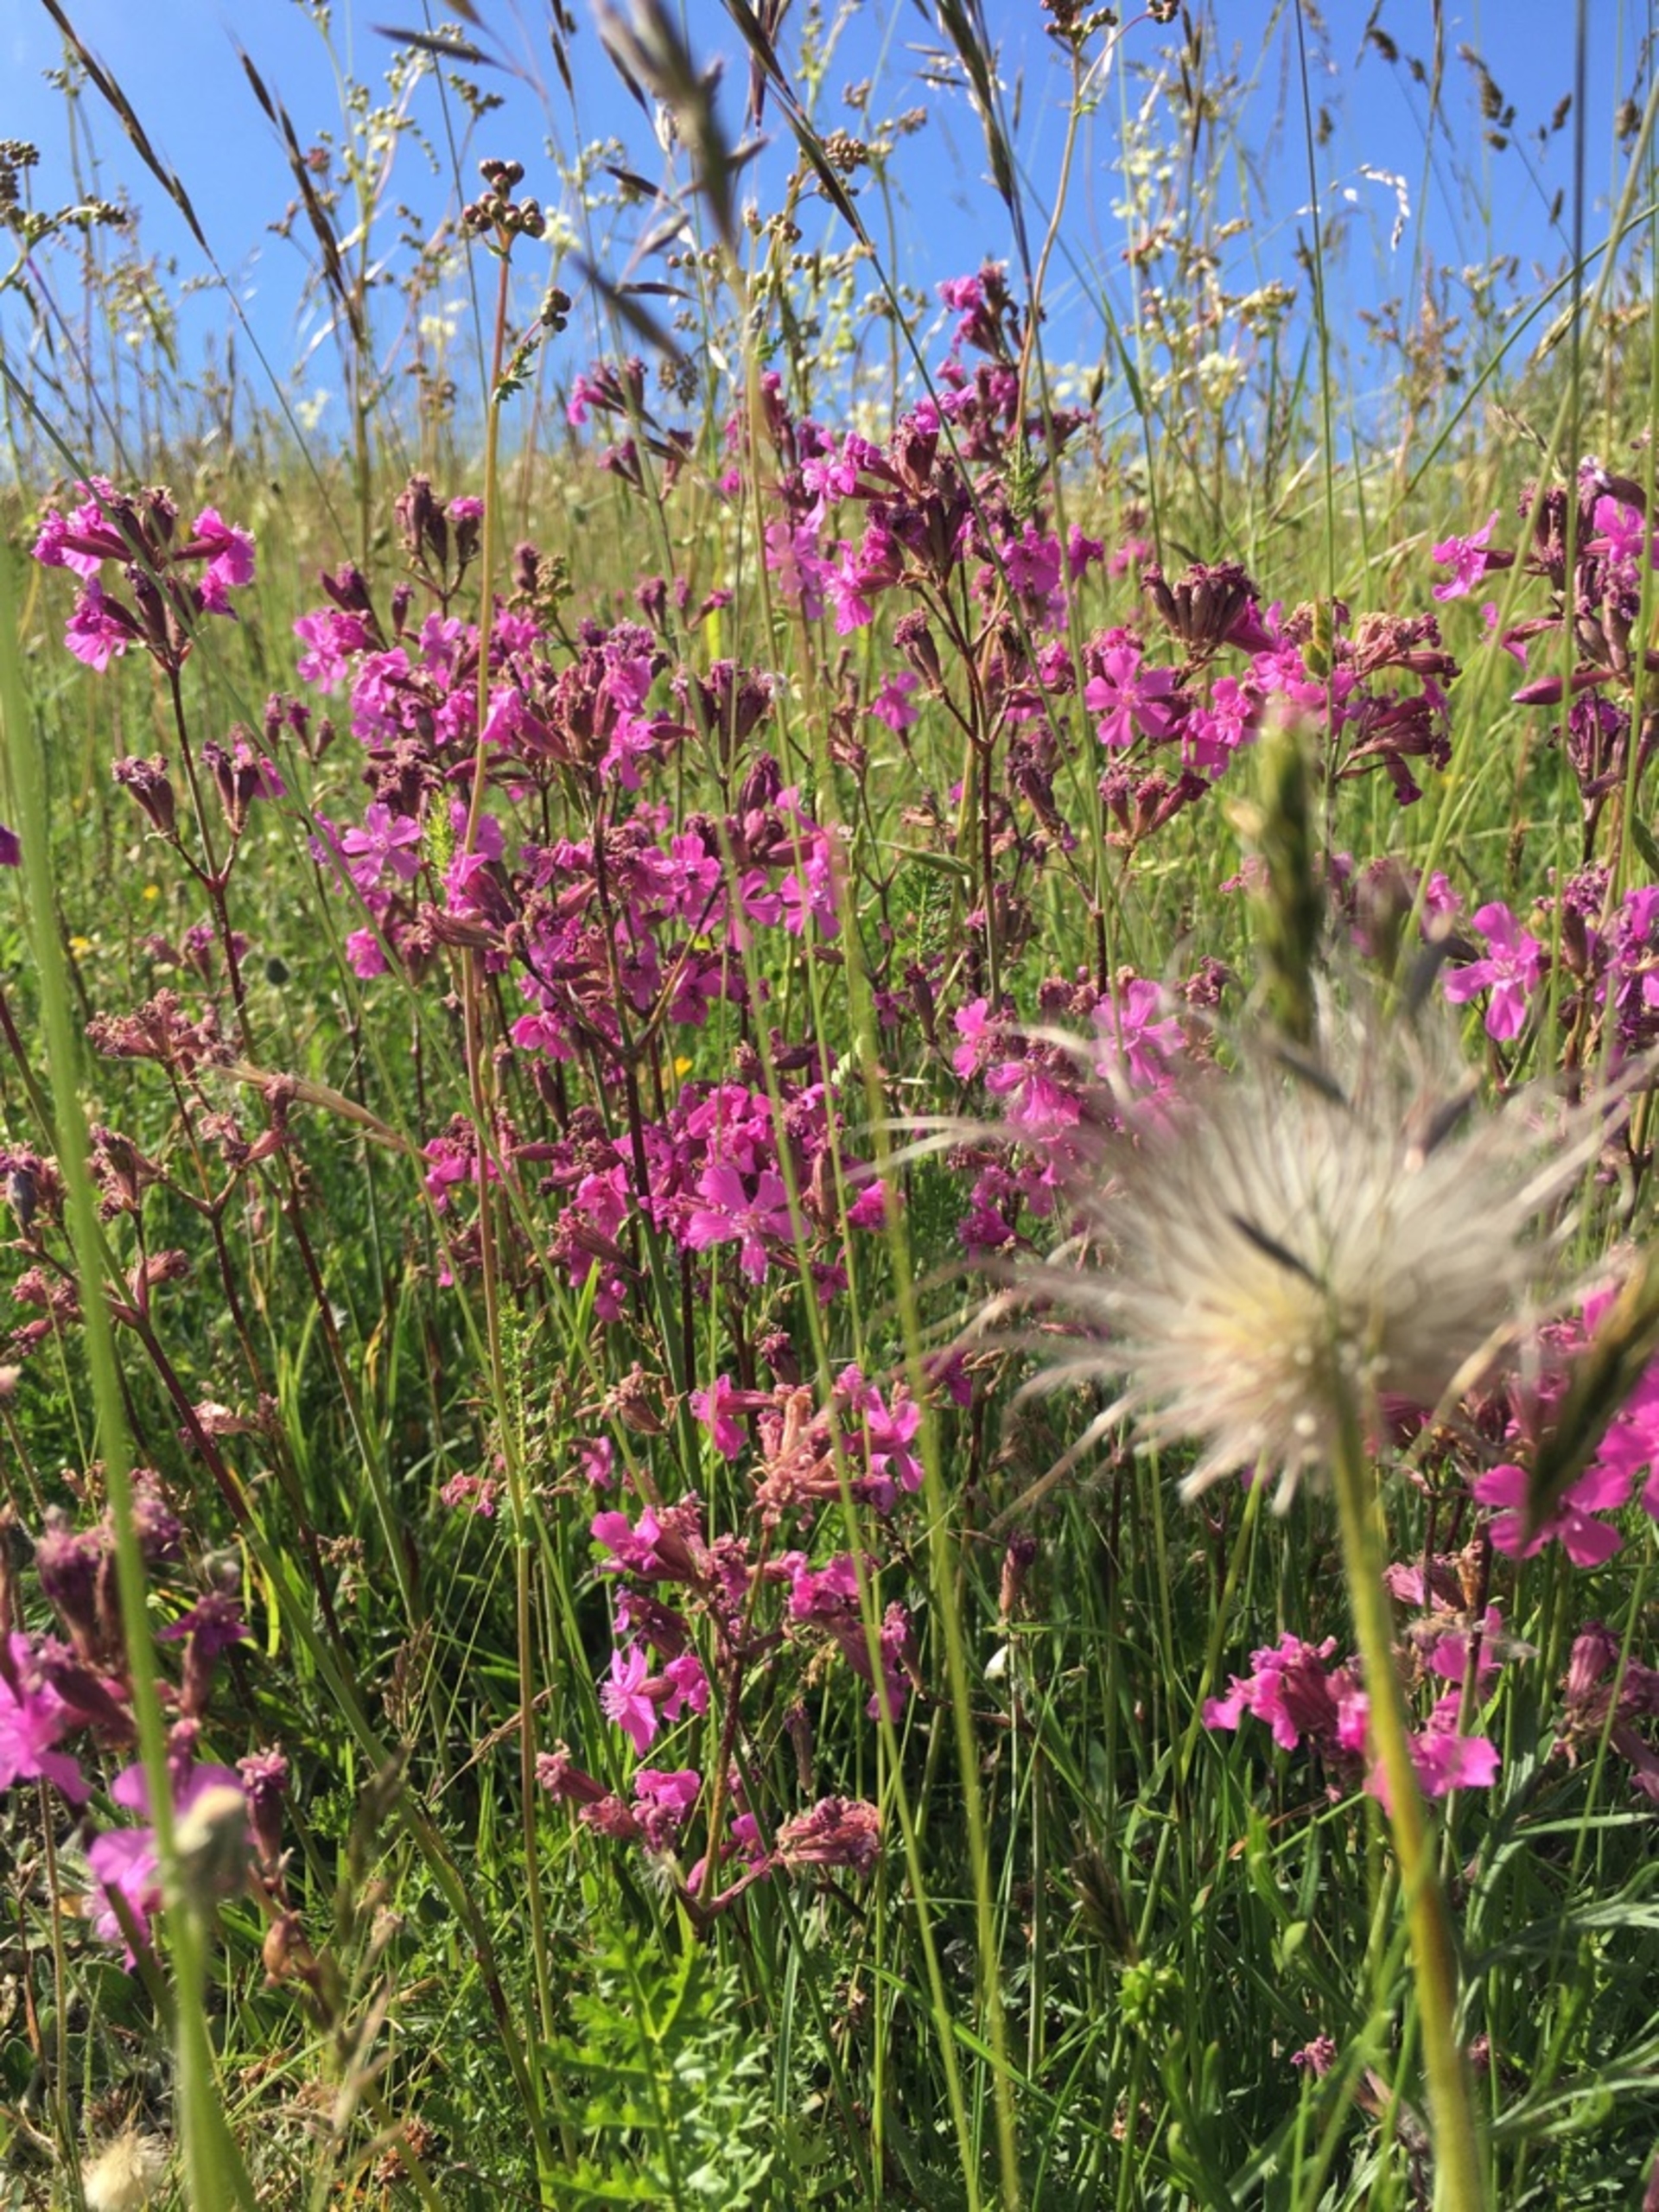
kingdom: Plantae
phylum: Tracheophyta
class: Magnoliopsida
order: Caryophyllales
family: Caryophyllaceae
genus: Viscaria
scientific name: Viscaria vulgaris
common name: Tjærenellike
